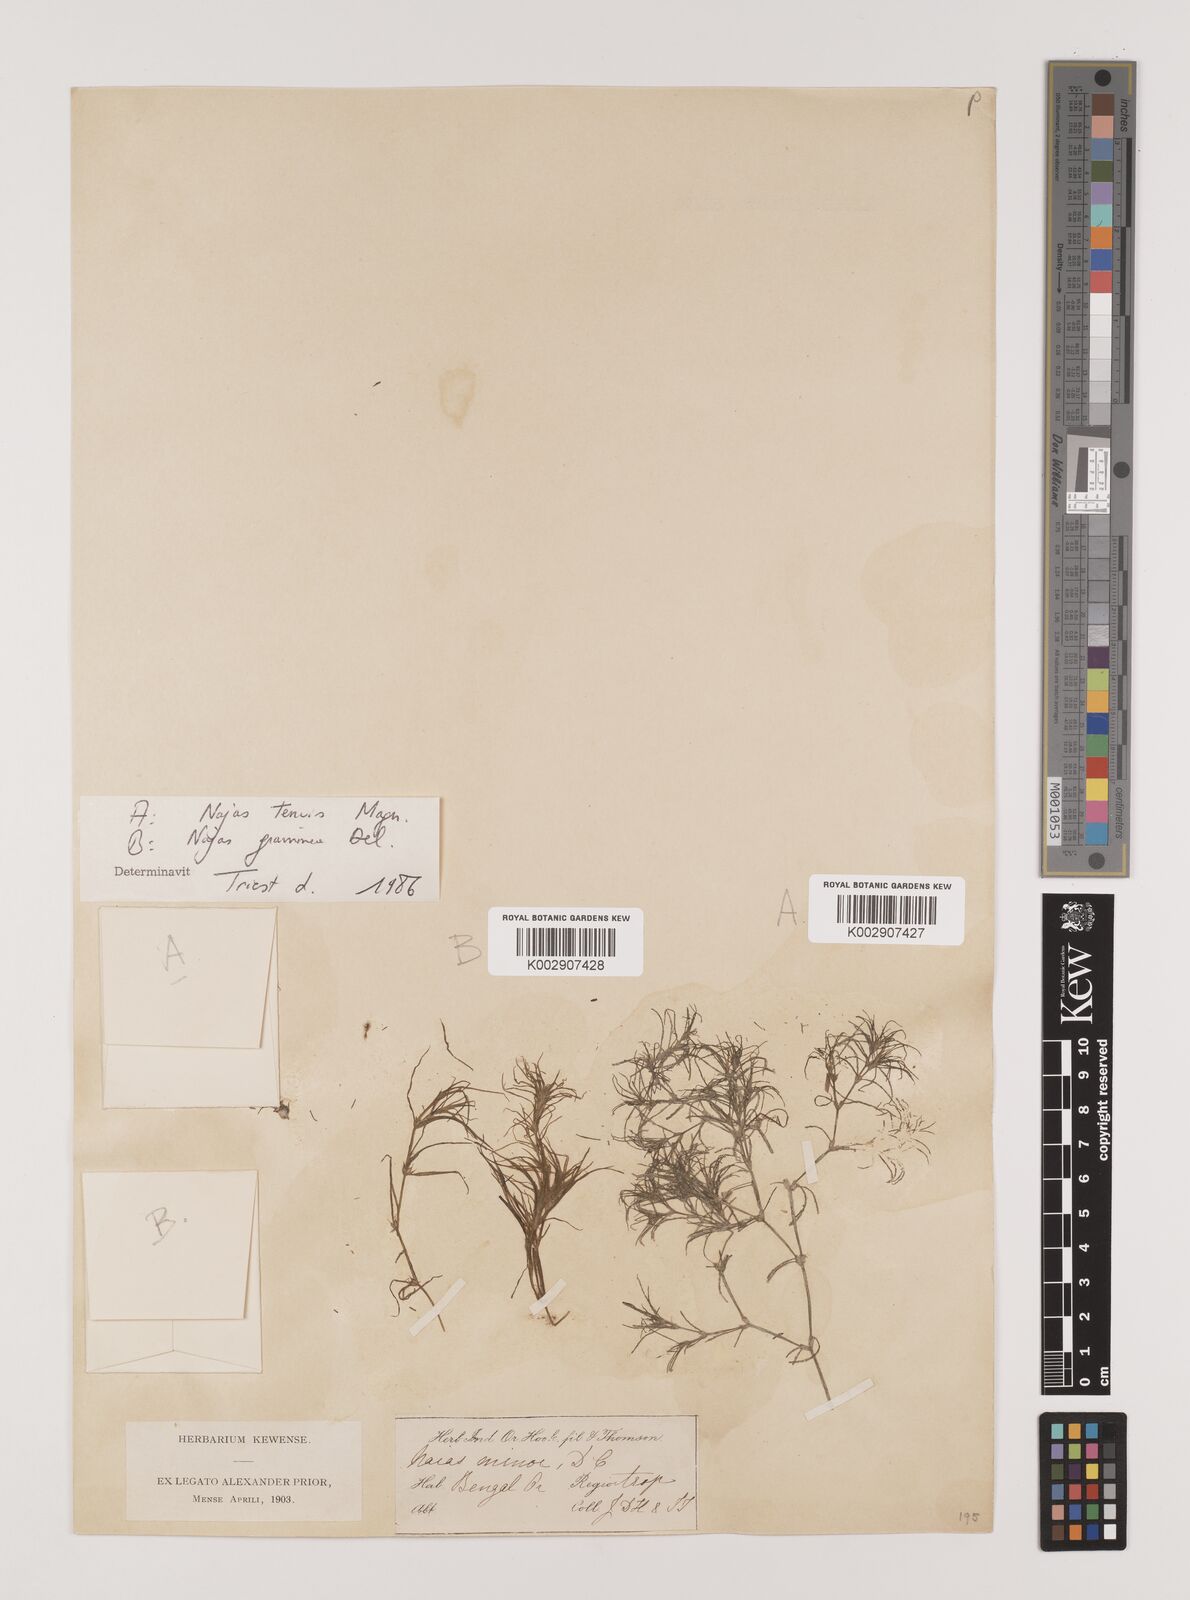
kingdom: Plantae
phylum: Tracheophyta
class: Liliopsida
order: Alismatales
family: Hydrocharitaceae
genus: Najas
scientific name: Najas indica
